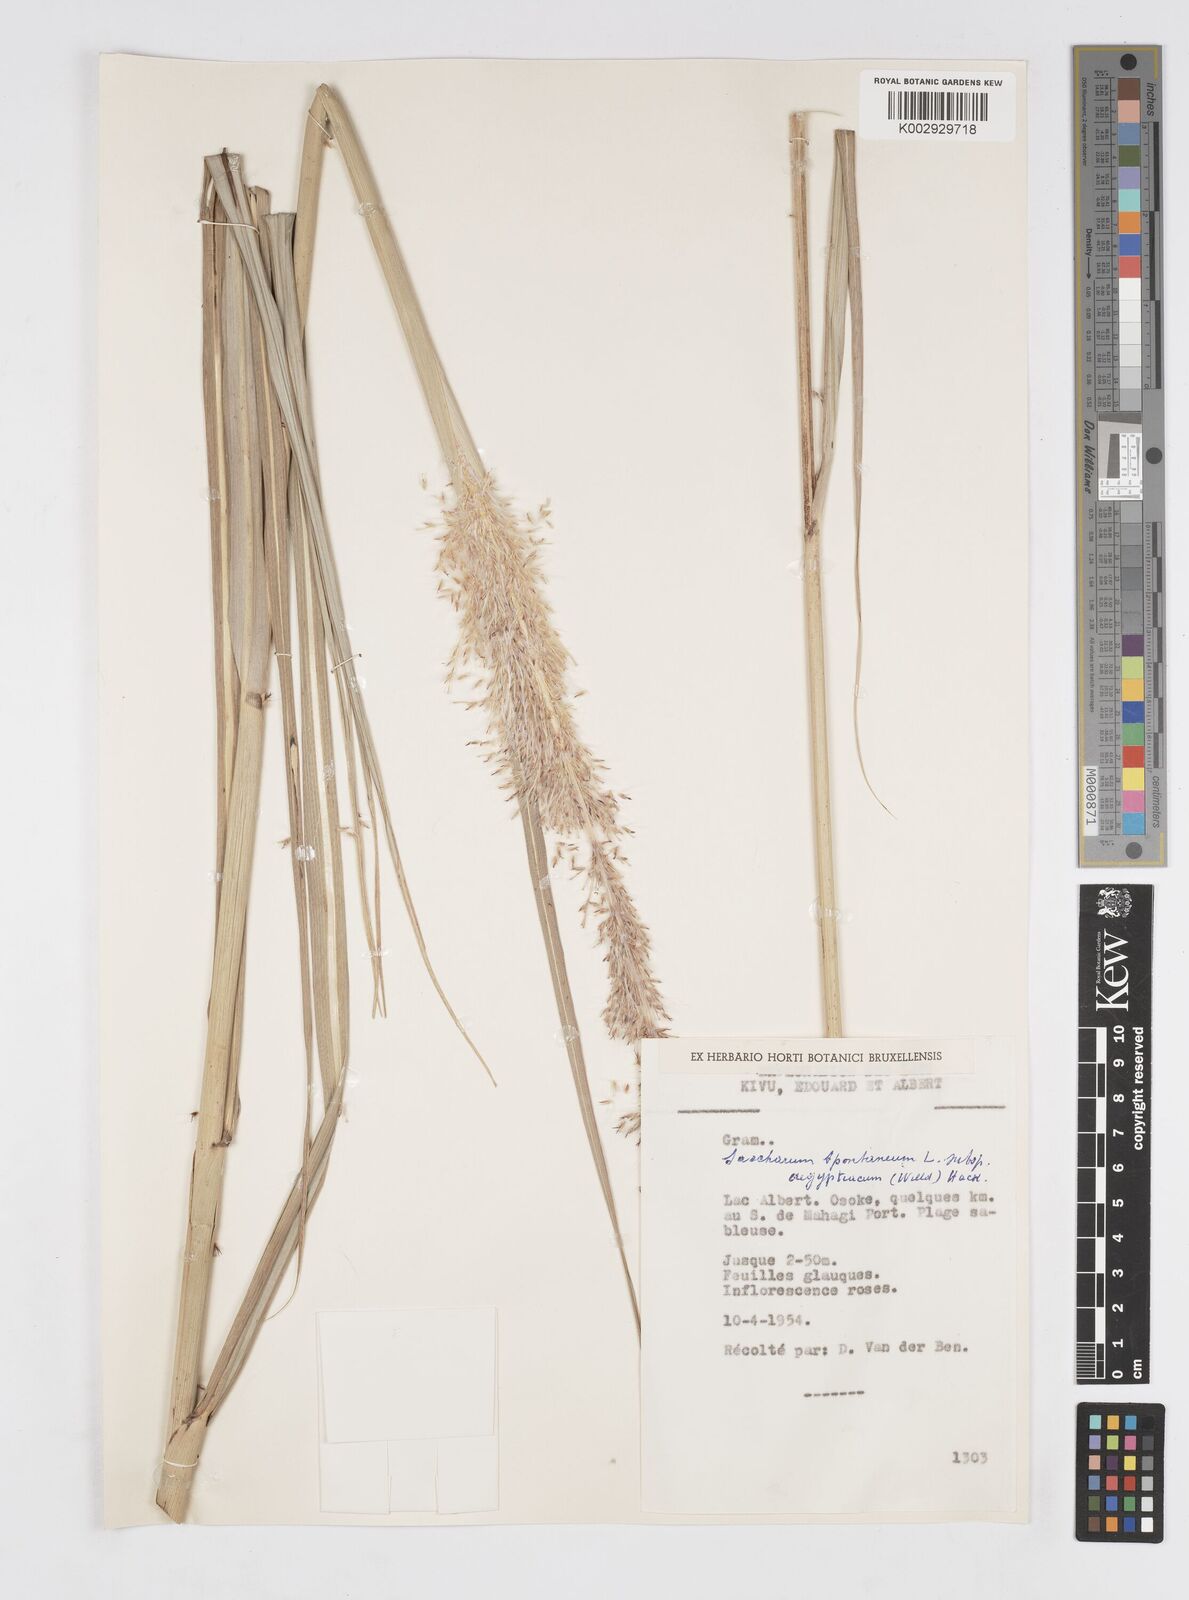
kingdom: Plantae
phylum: Tracheophyta
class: Liliopsida
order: Poales
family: Poaceae
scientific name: Poaceae
